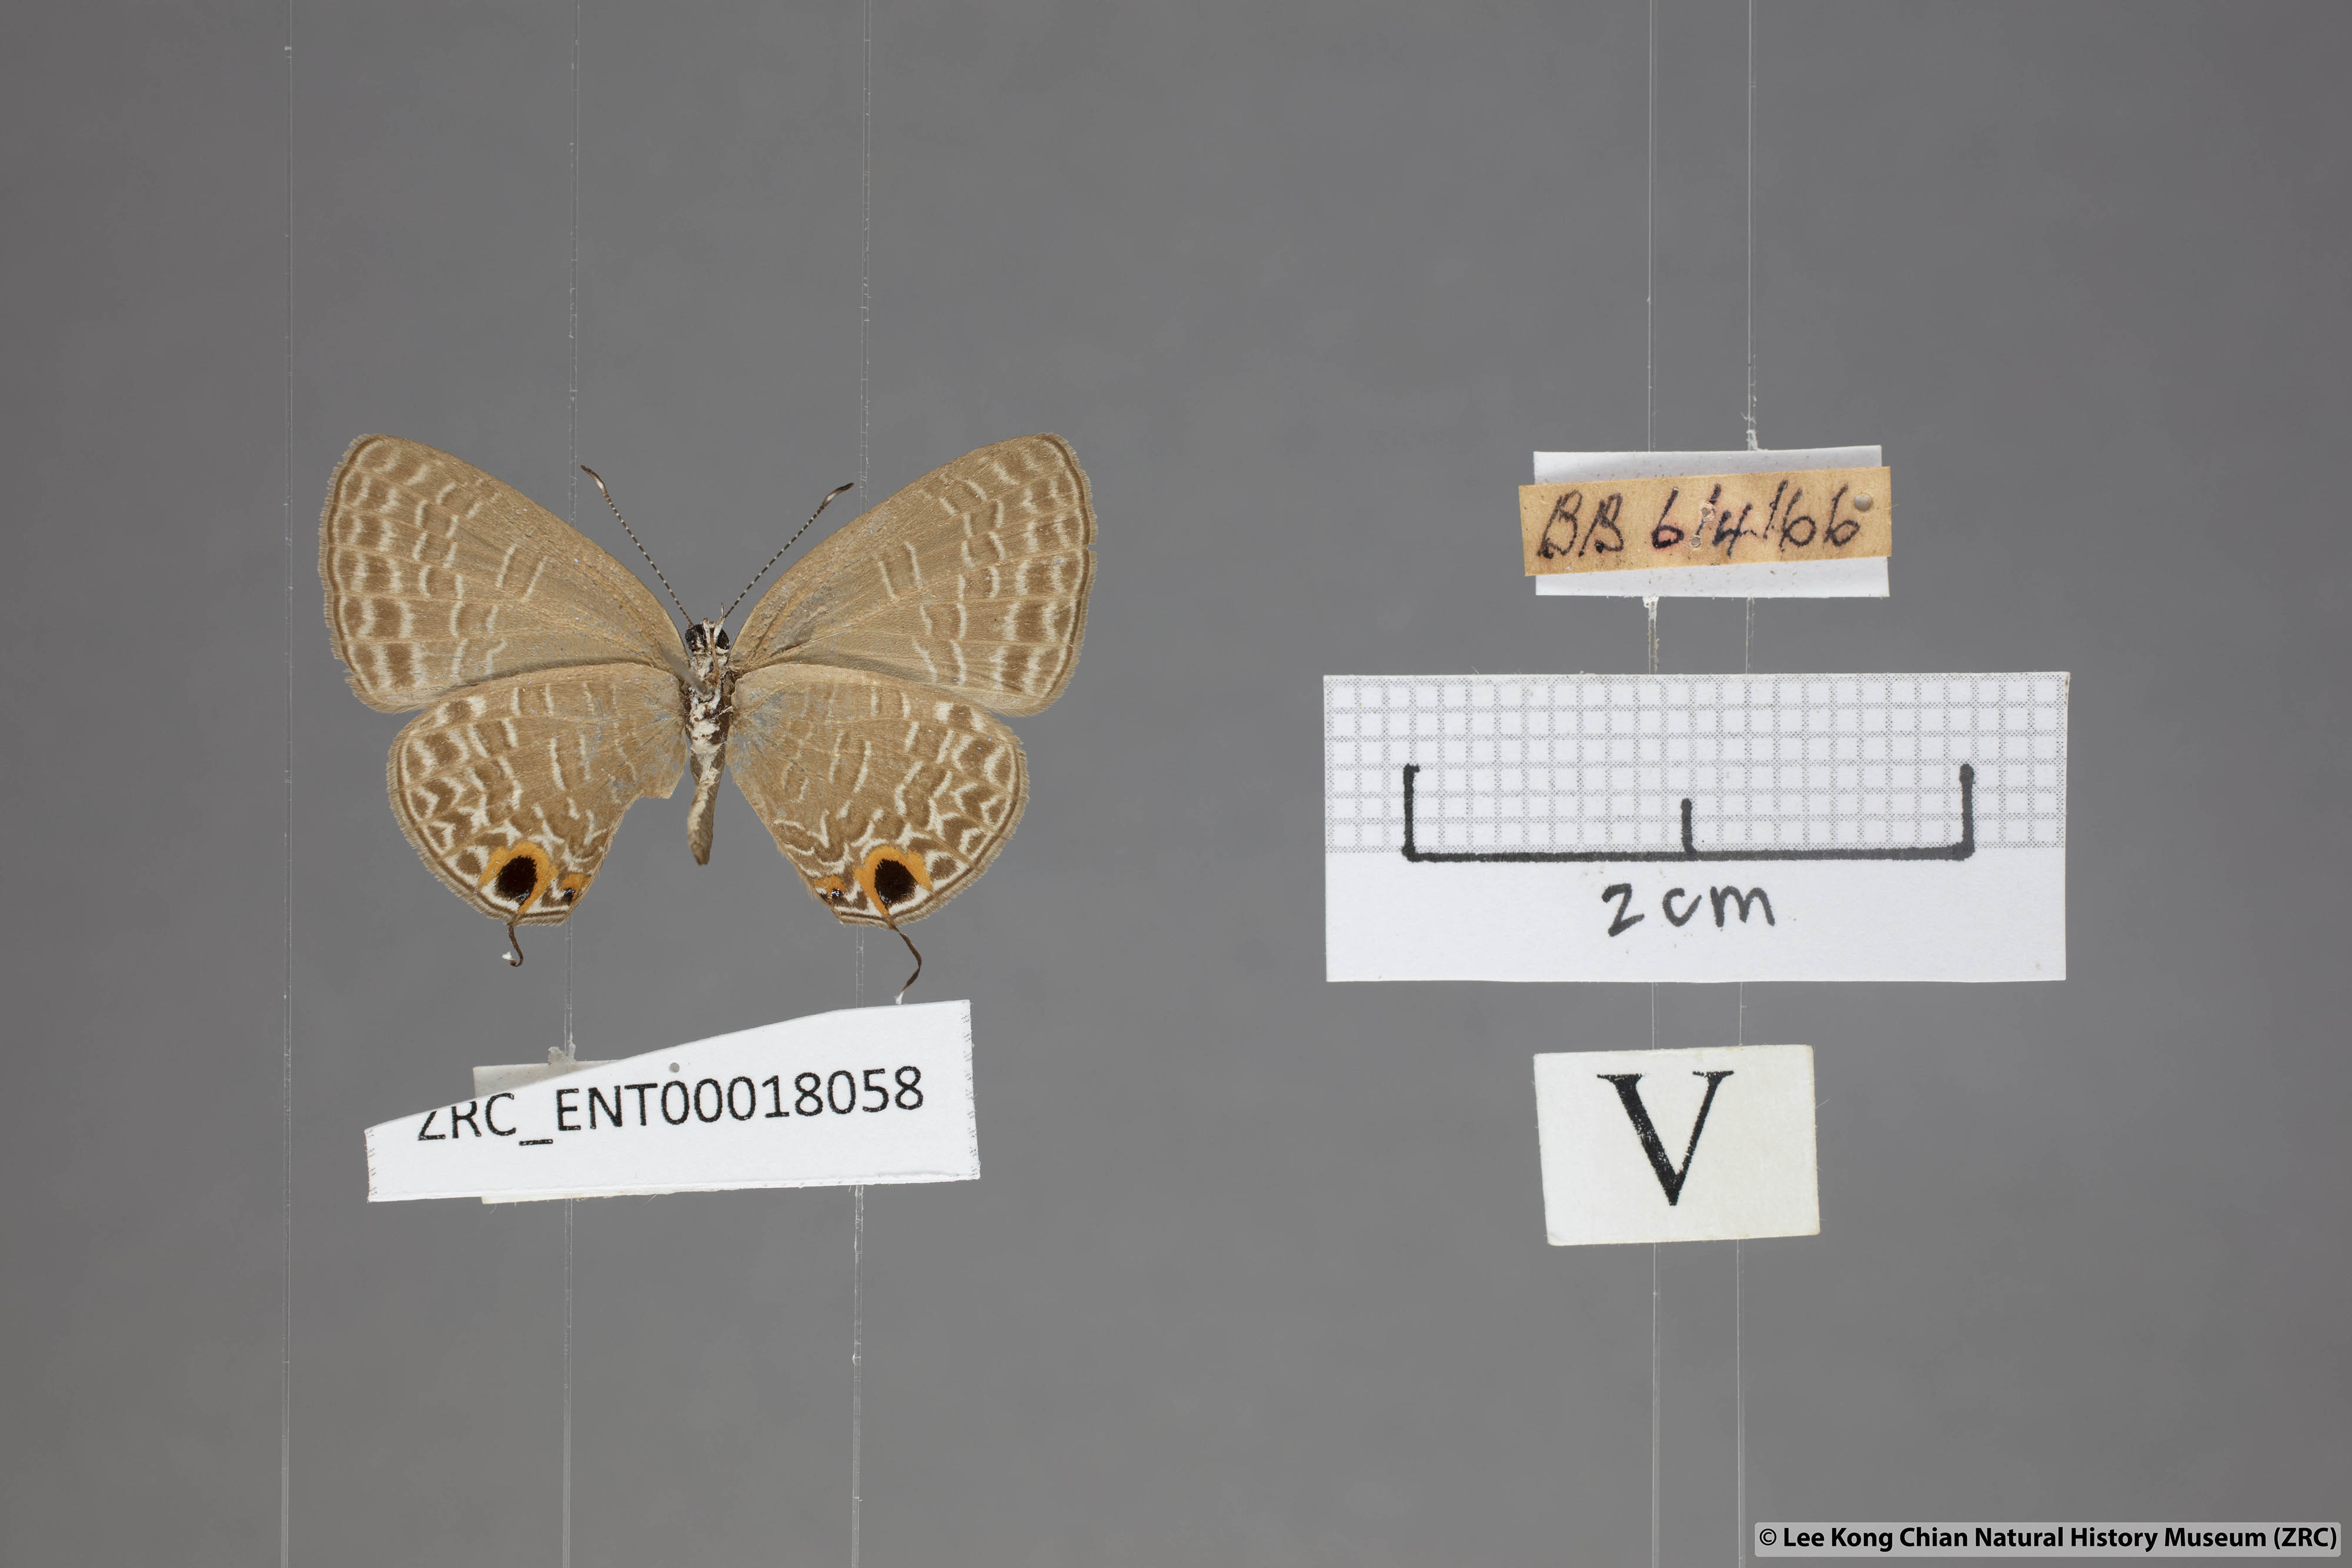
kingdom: Animalia
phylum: Arthropoda
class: Insecta
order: Lepidoptera
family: Lycaenidae
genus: Jamides
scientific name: Jamides bochus
